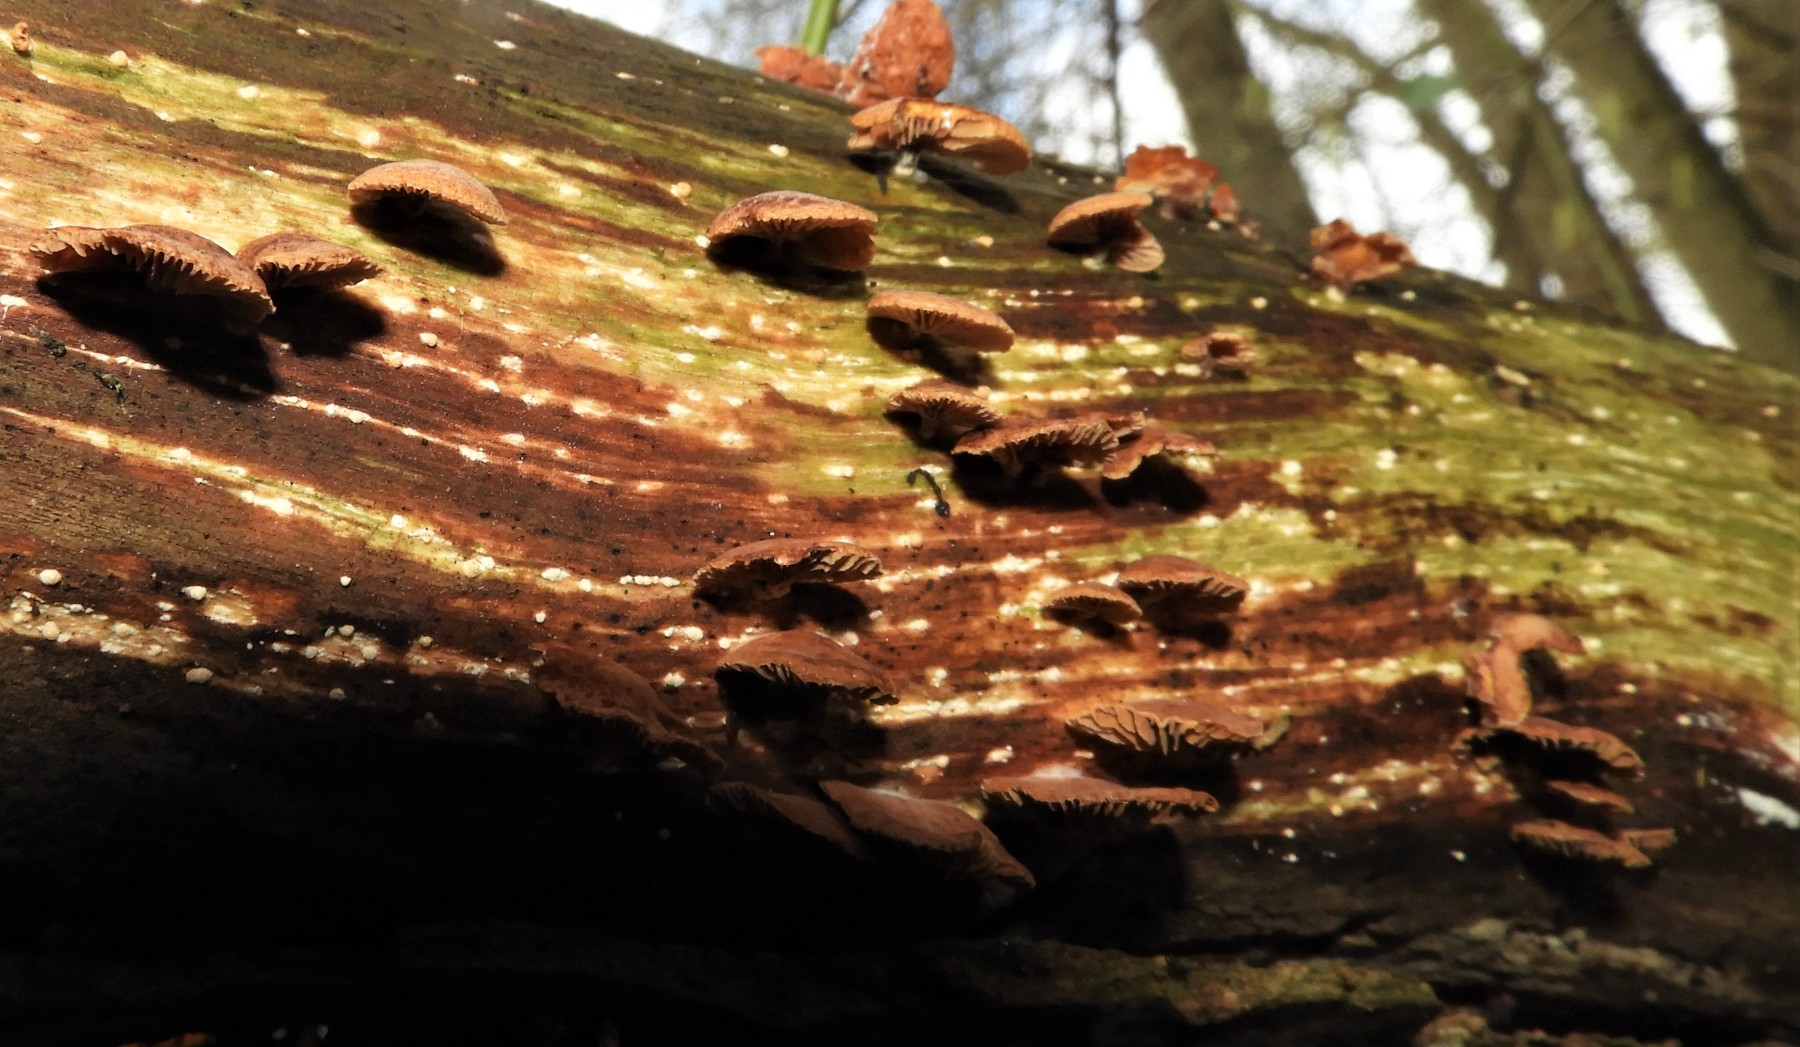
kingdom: Fungi
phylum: Basidiomycota
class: Agaricomycetes
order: Agaricales
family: Strophariaceae
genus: Deconica
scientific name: Deconica horizontalis
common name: ved-stråhat
